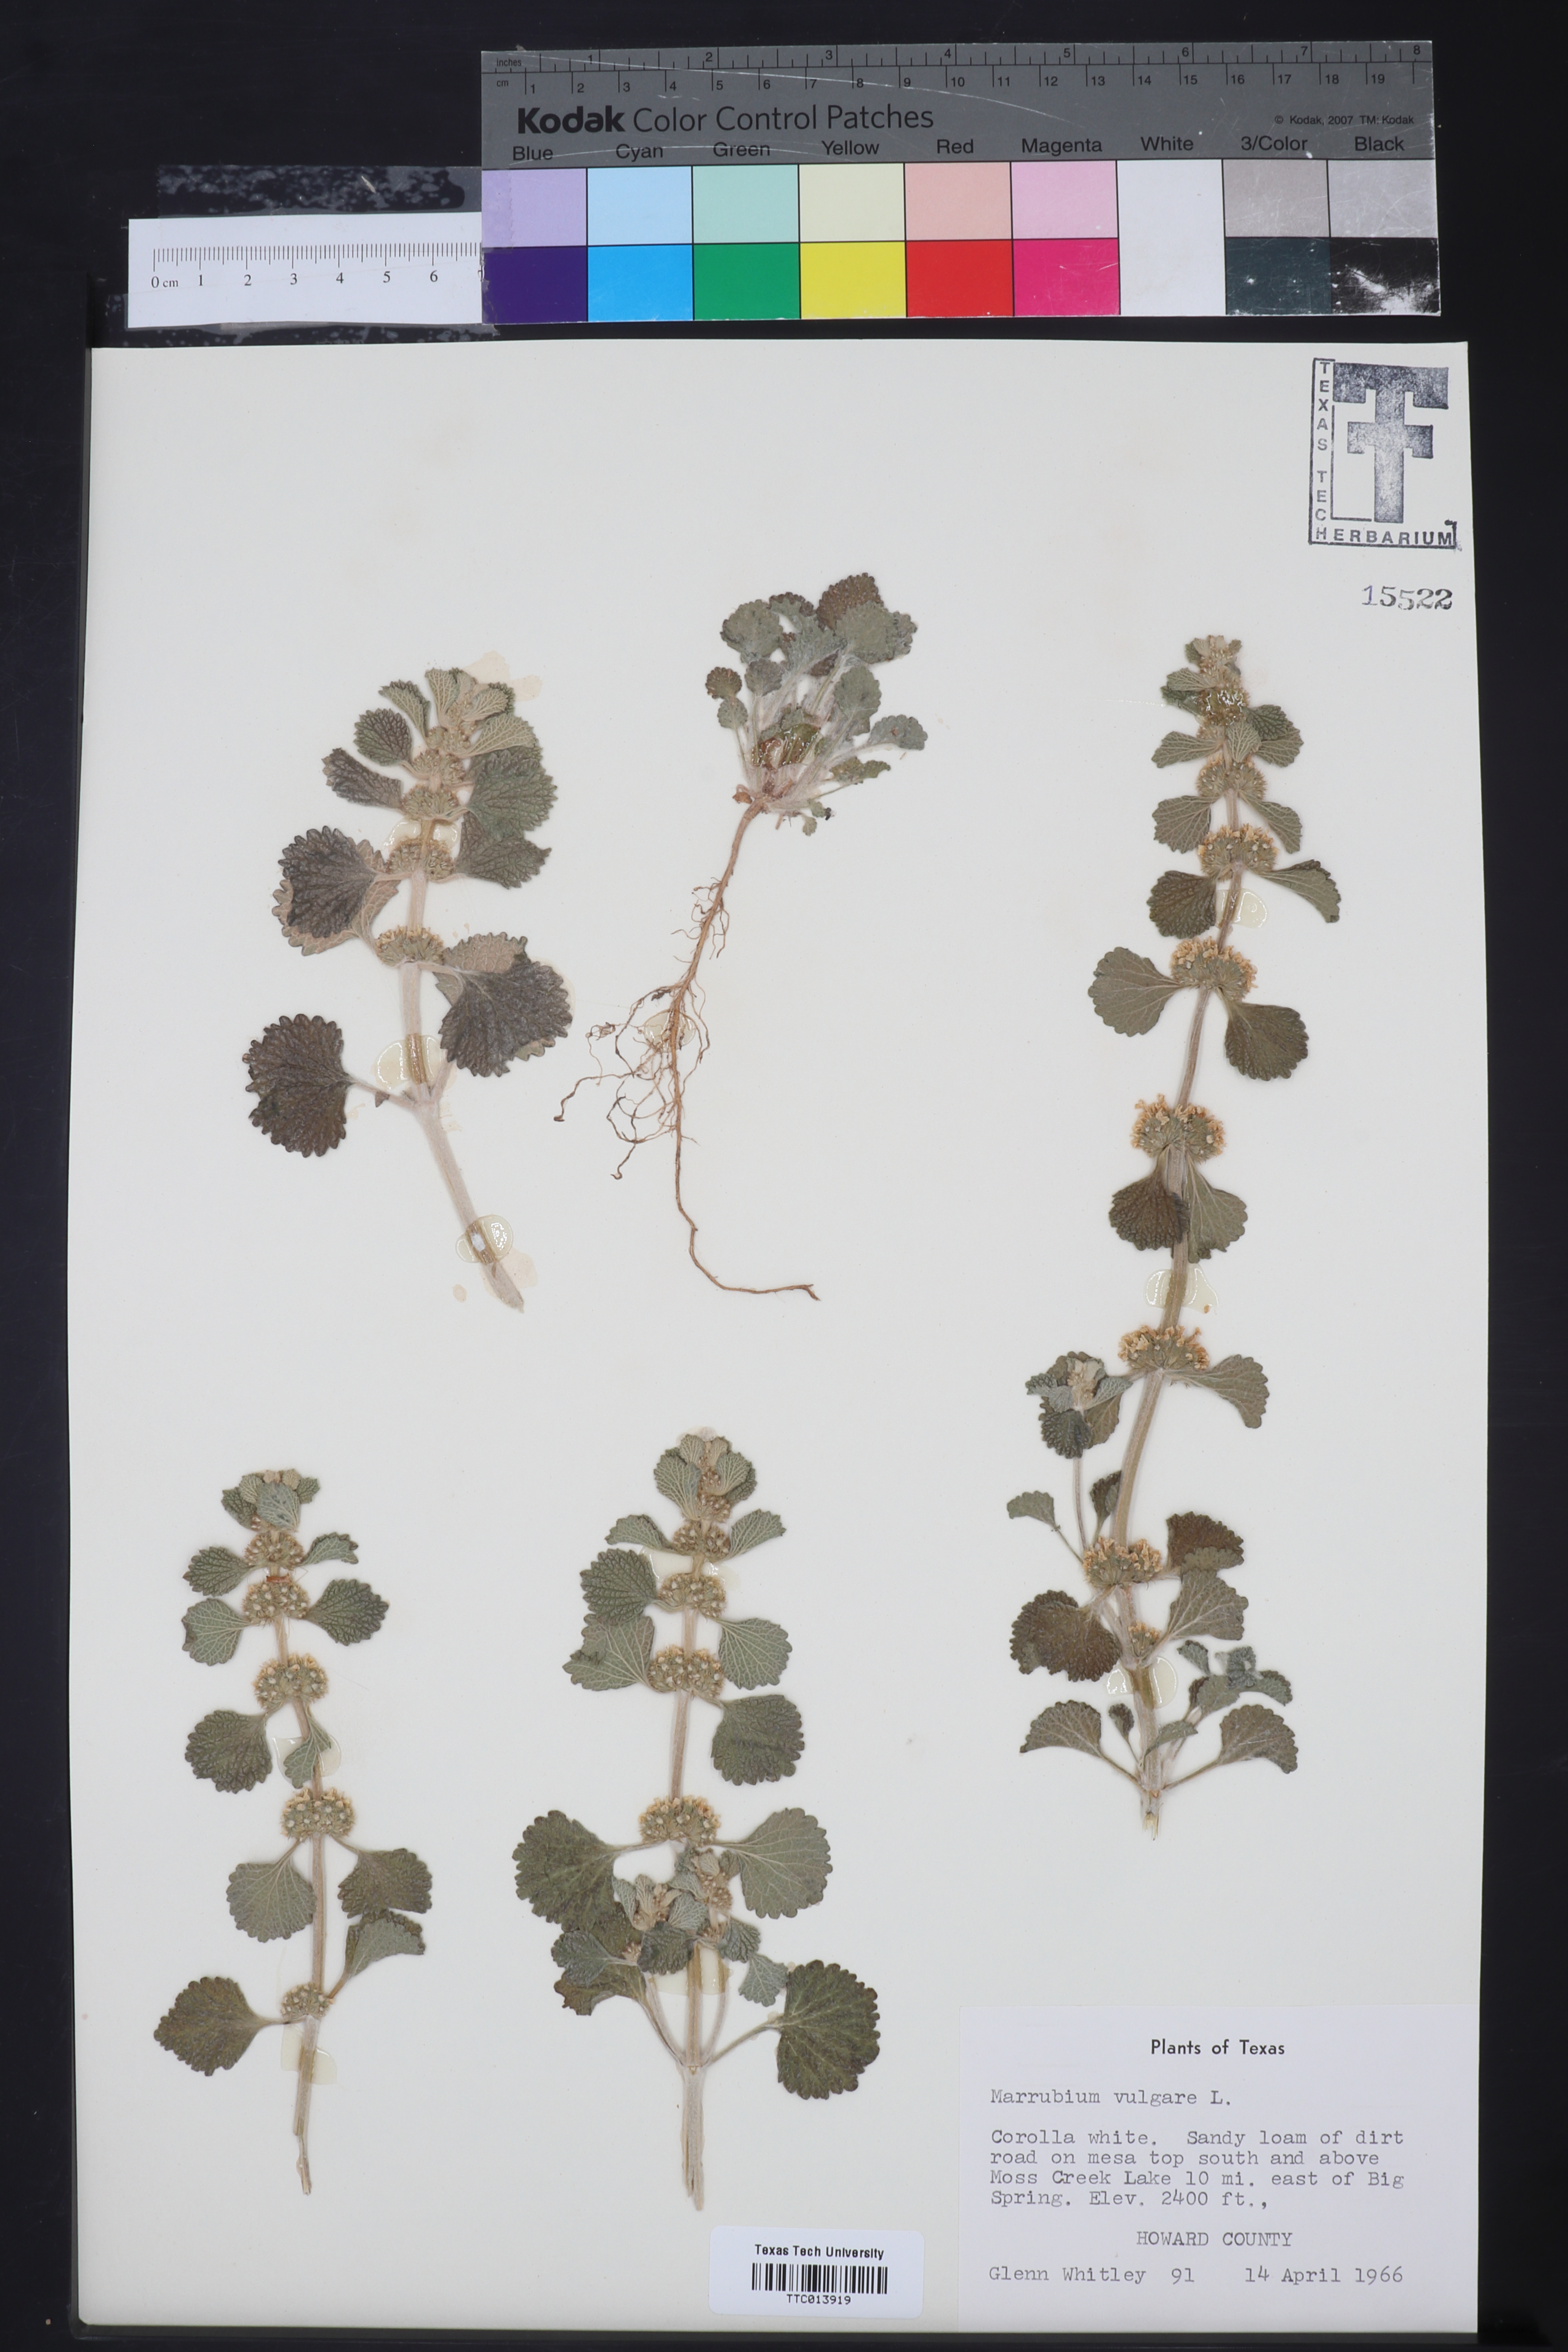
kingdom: Plantae
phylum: Tracheophyta
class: Magnoliopsida
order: Lamiales
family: Lamiaceae
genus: Marrubium
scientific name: Marrubium vulgare
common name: Horehound
